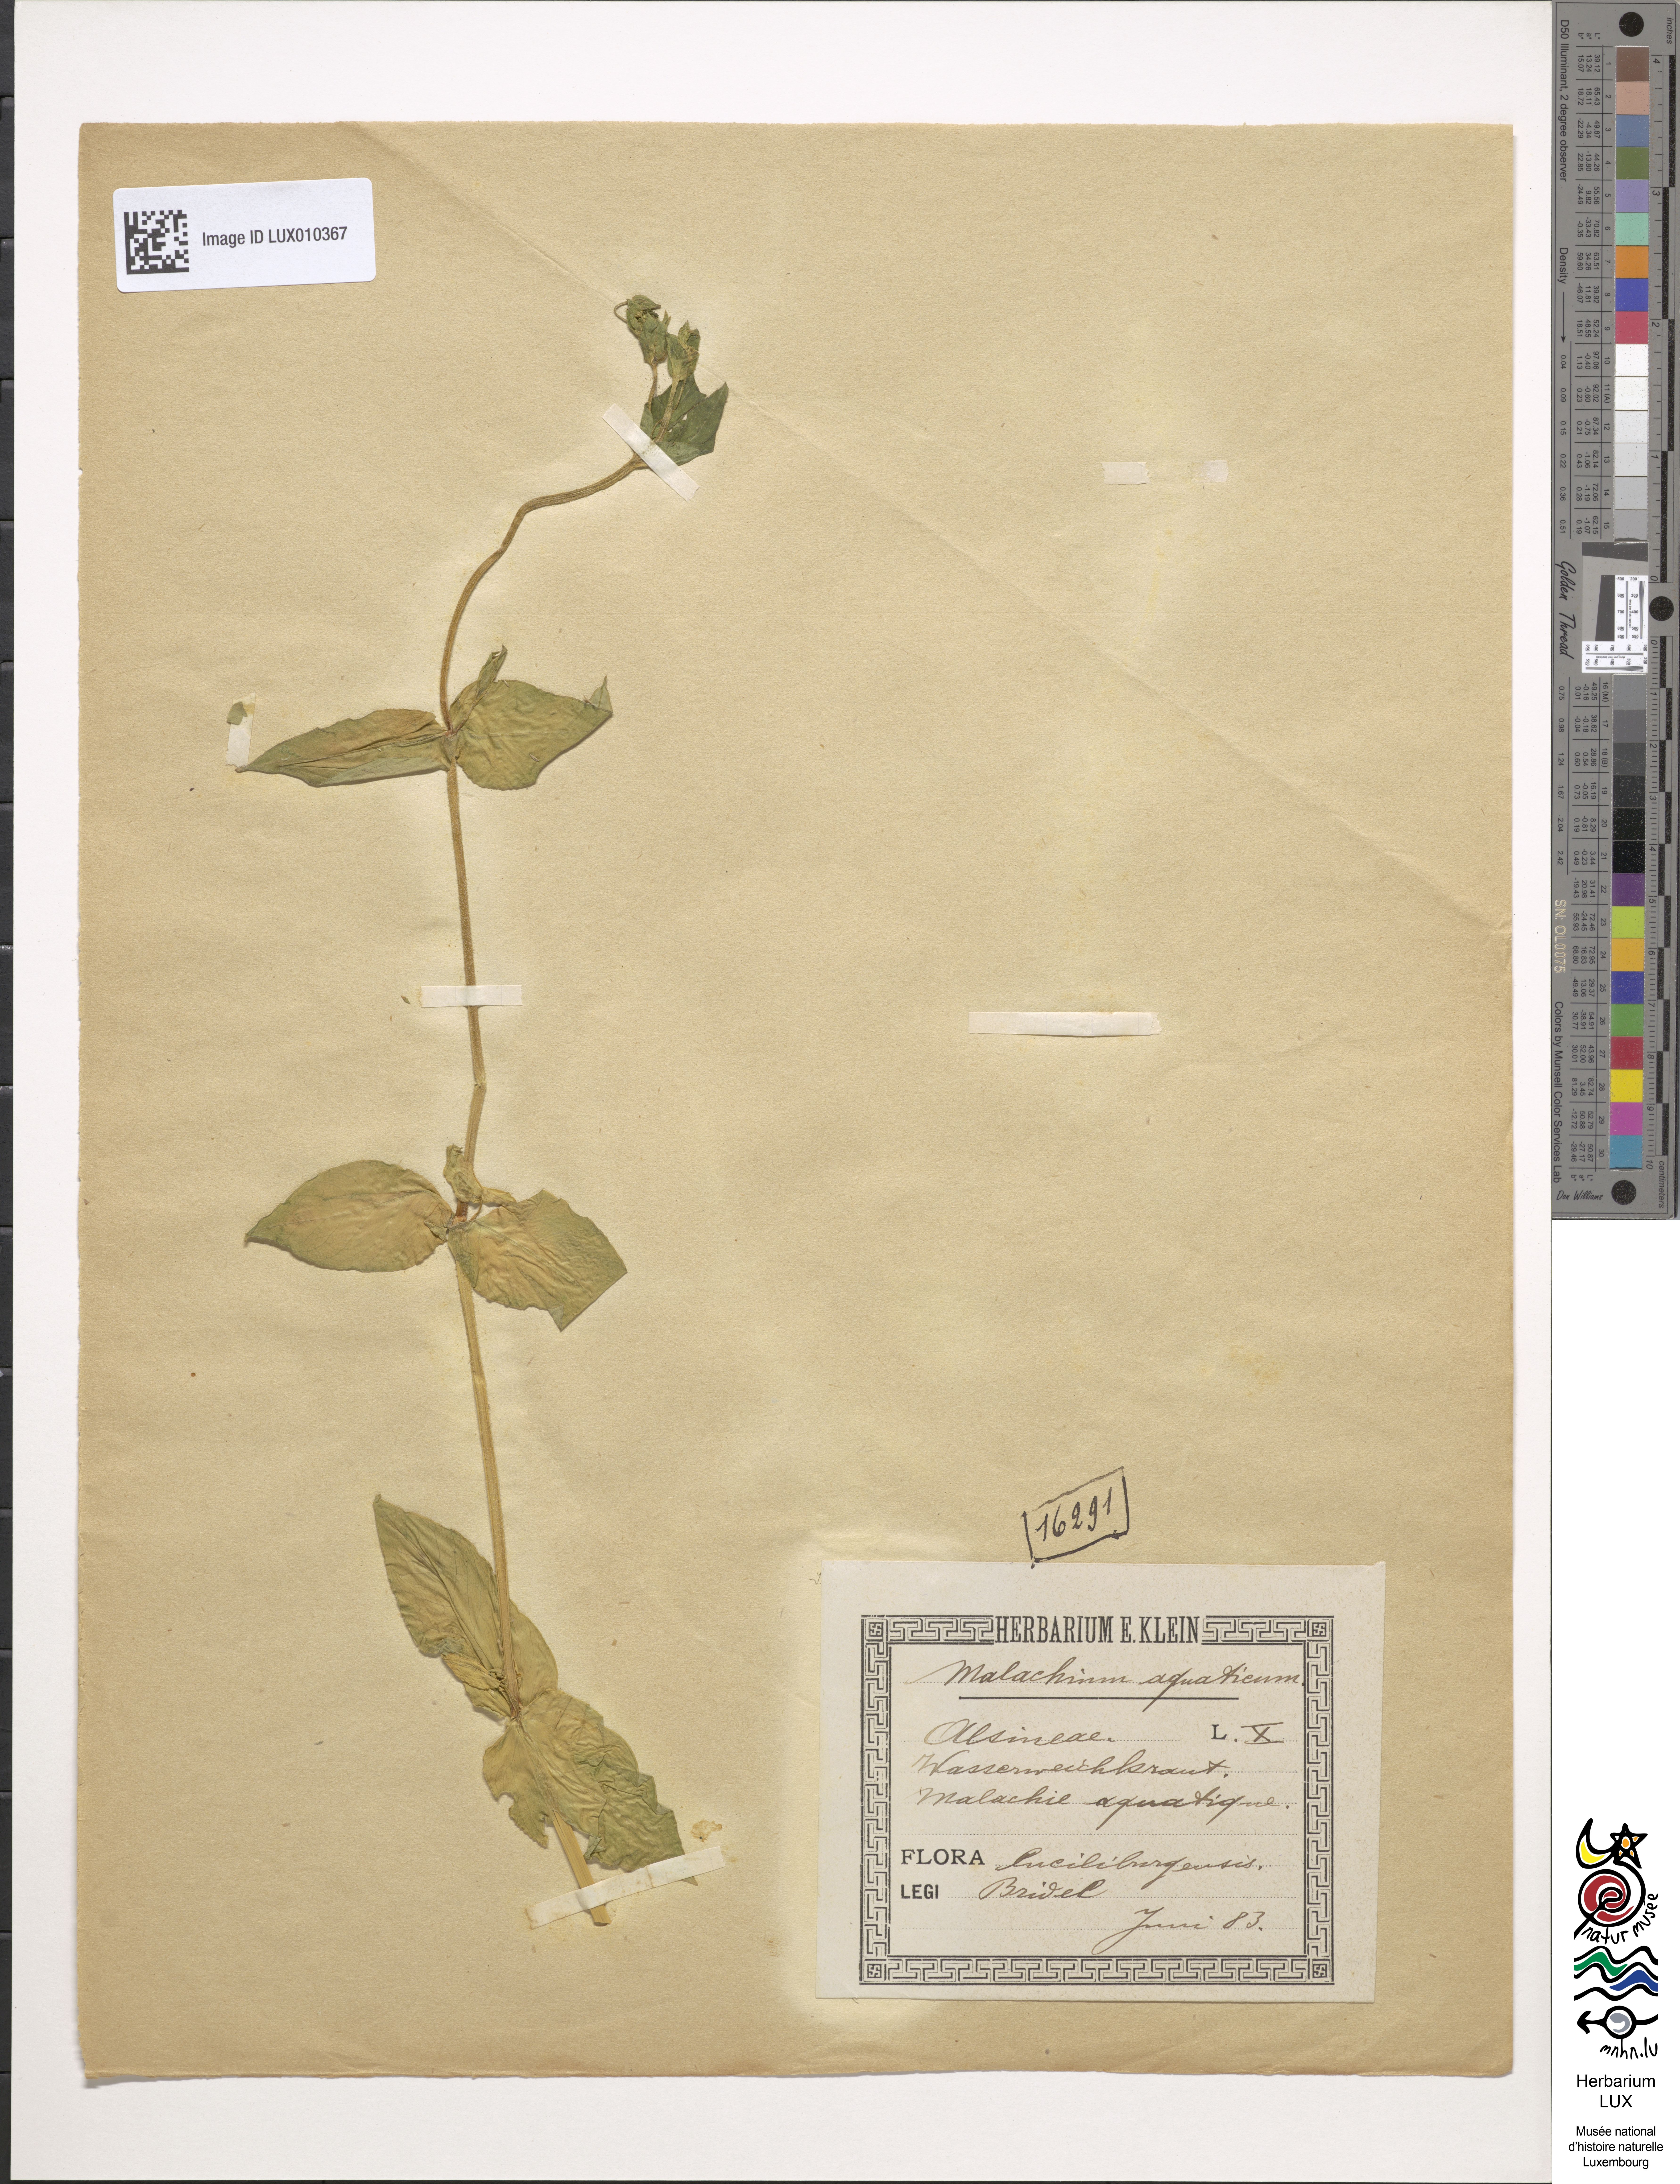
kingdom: Plantae
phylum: Tracheophyta
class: Magnoliopsida
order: Caryophyllales
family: Caryophyllaceae
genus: Stellaria
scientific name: Stellaria aquatica
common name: Water chickweed
